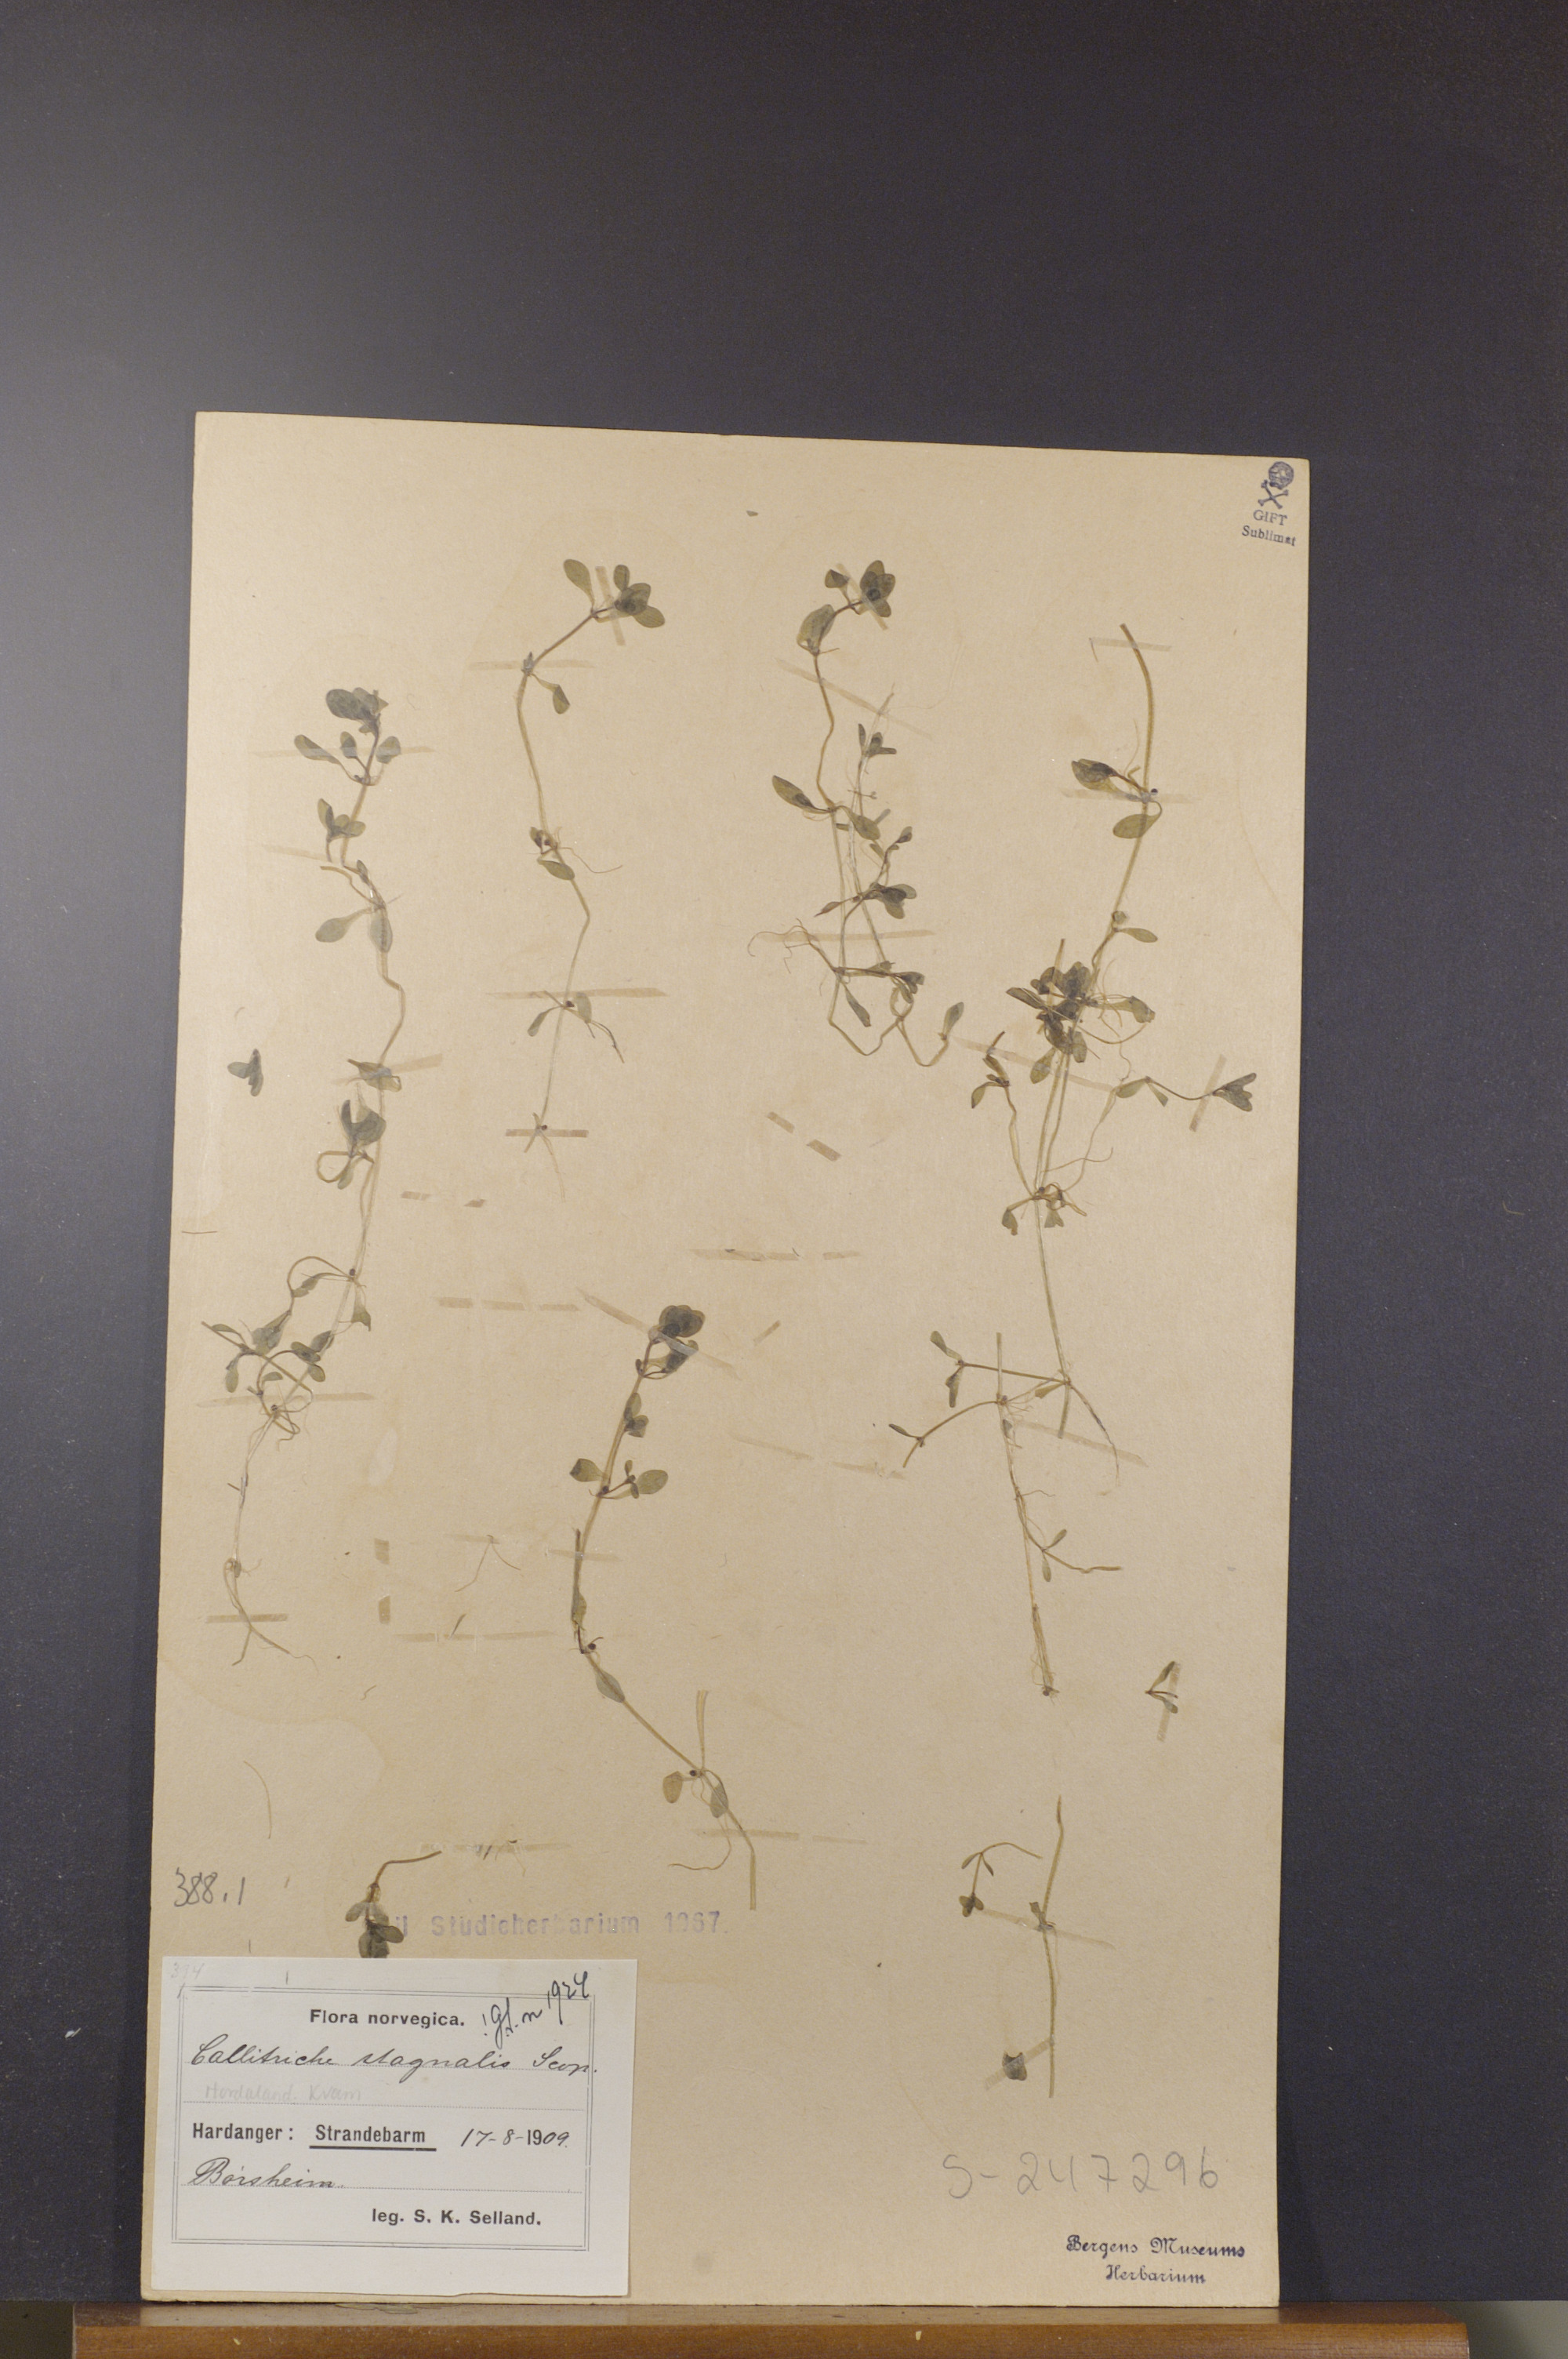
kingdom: Plantae
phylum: Tracheophyta
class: Magnoliopsida
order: Lamiales
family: Plantaginaceae
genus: Callitriche
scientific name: Callitriche stagnalis
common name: Common water-starwort
